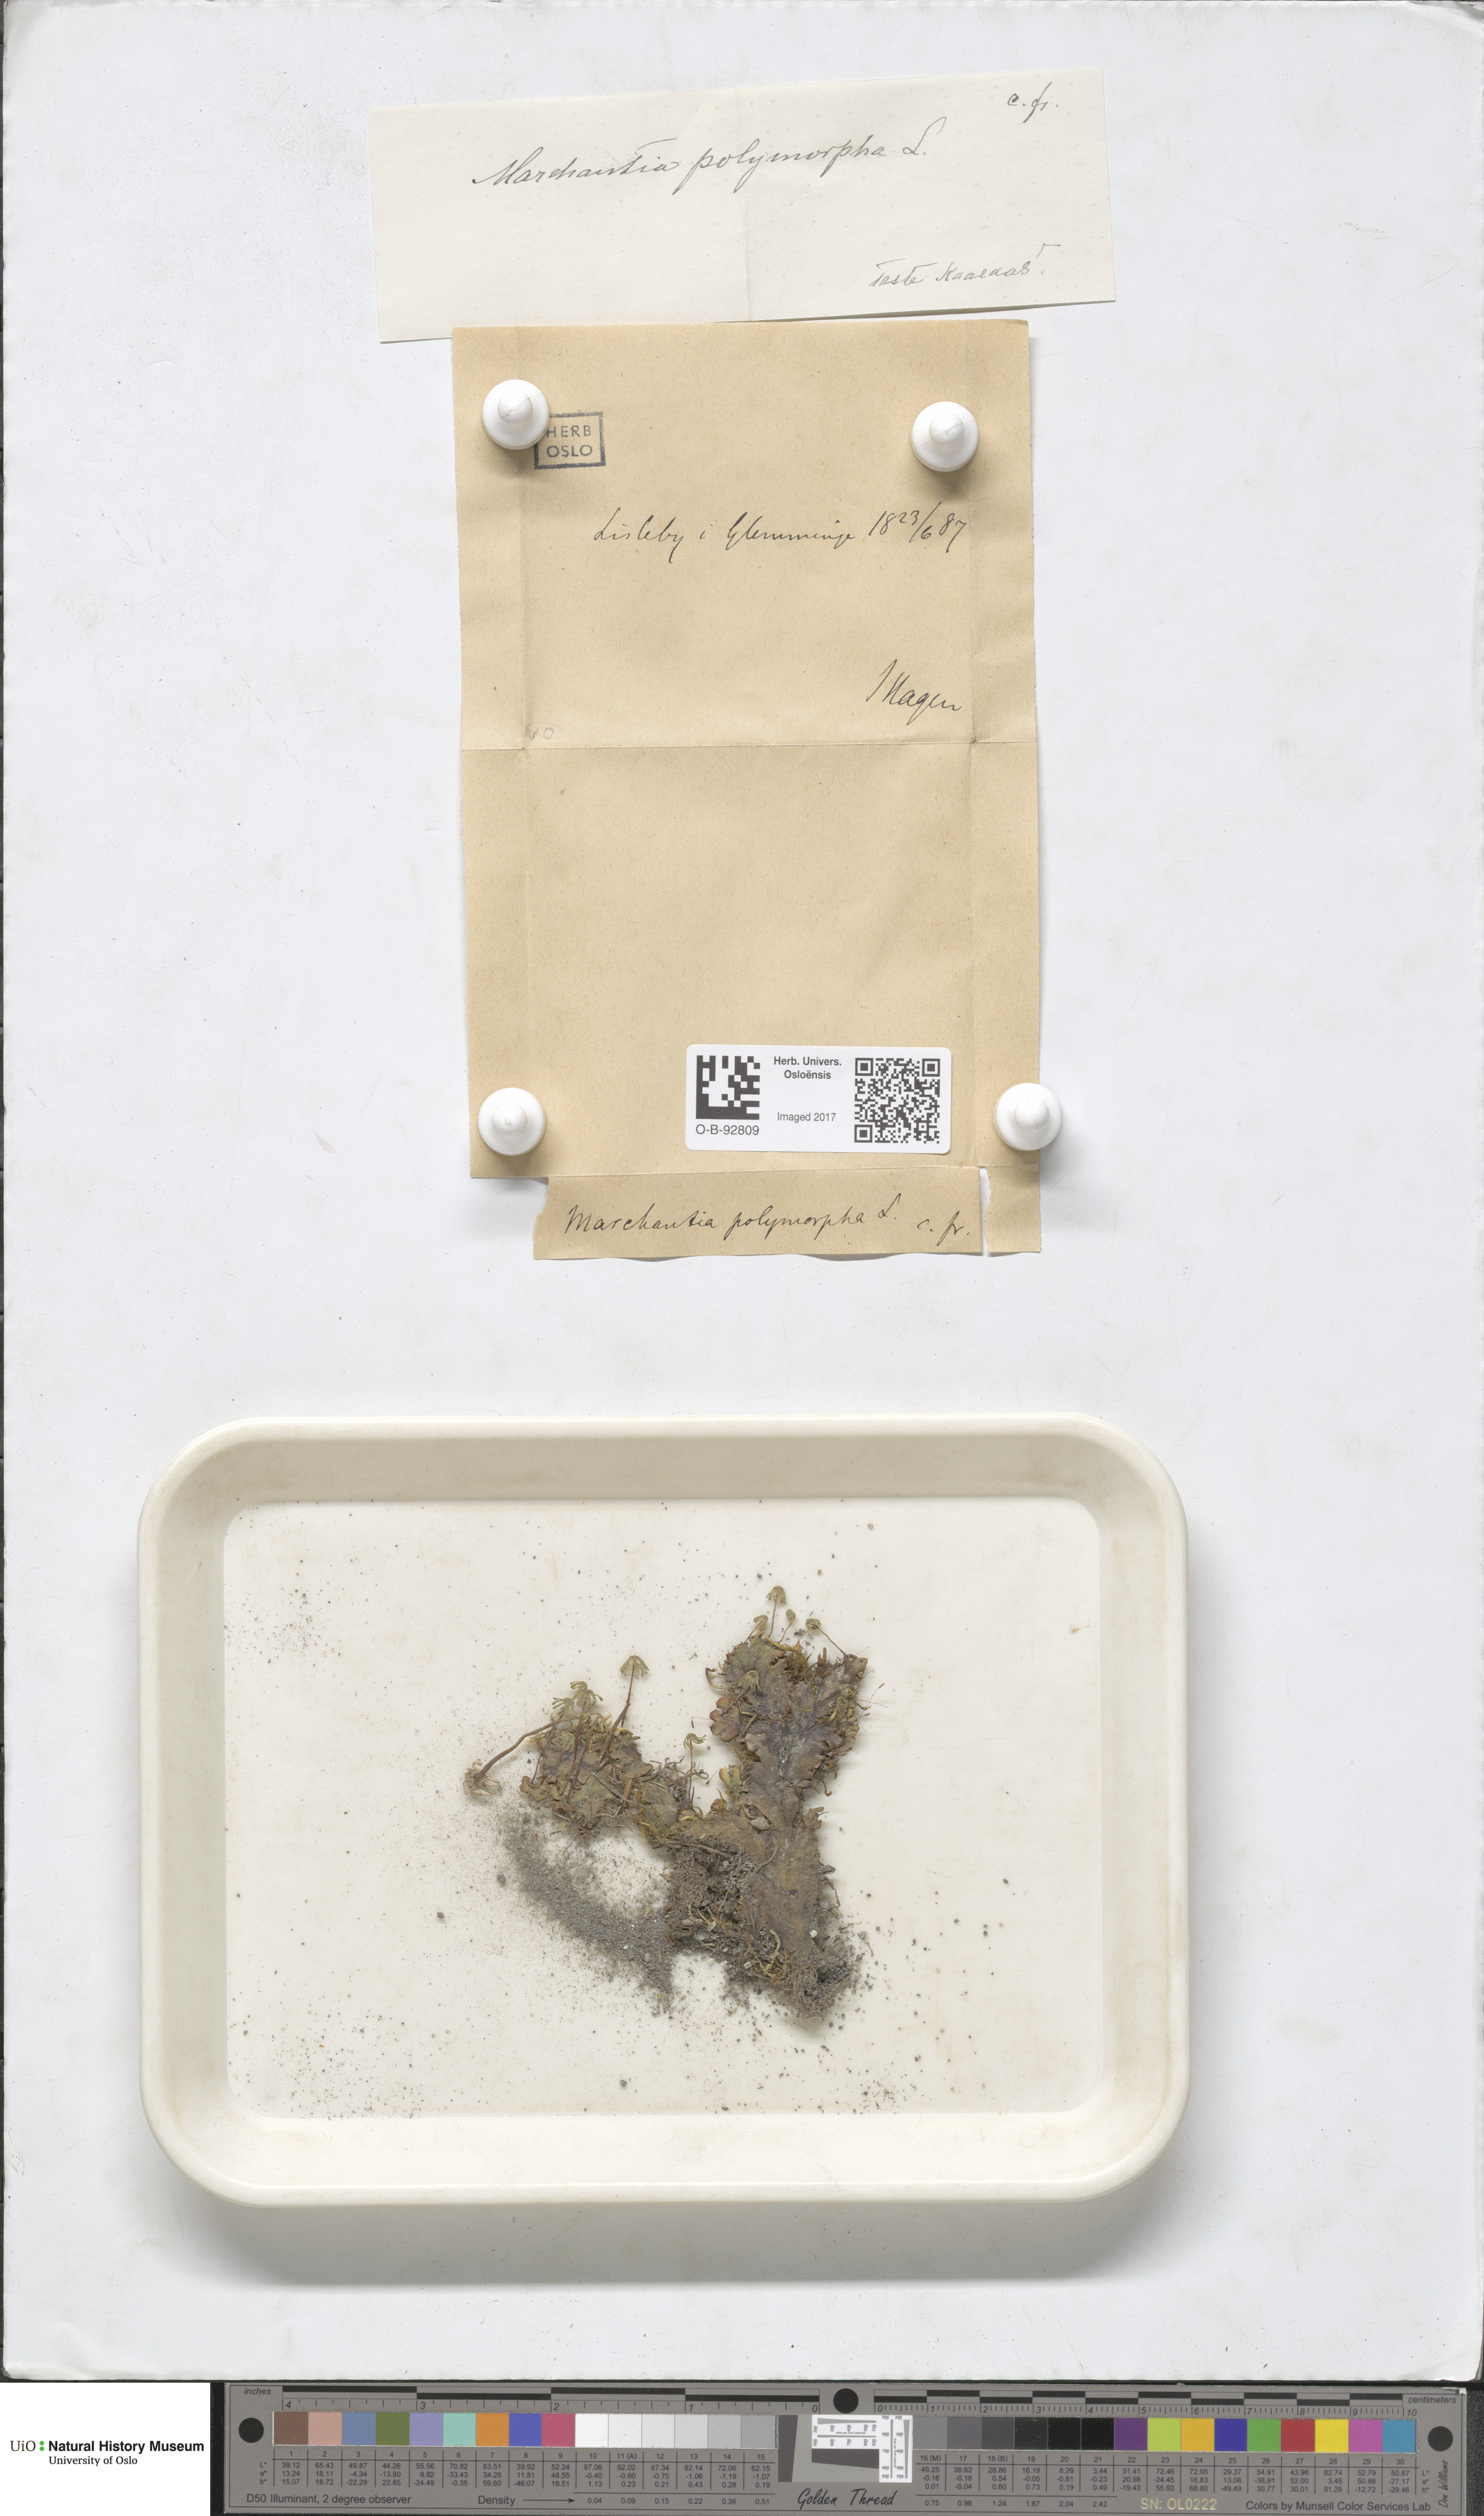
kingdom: Plantae
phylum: Marchantiophyta
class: Marchantiopsida
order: Marchantiales
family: Marchantiaceae
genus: Marchantia
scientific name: Marchantia polymorpha
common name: Common liverwort
